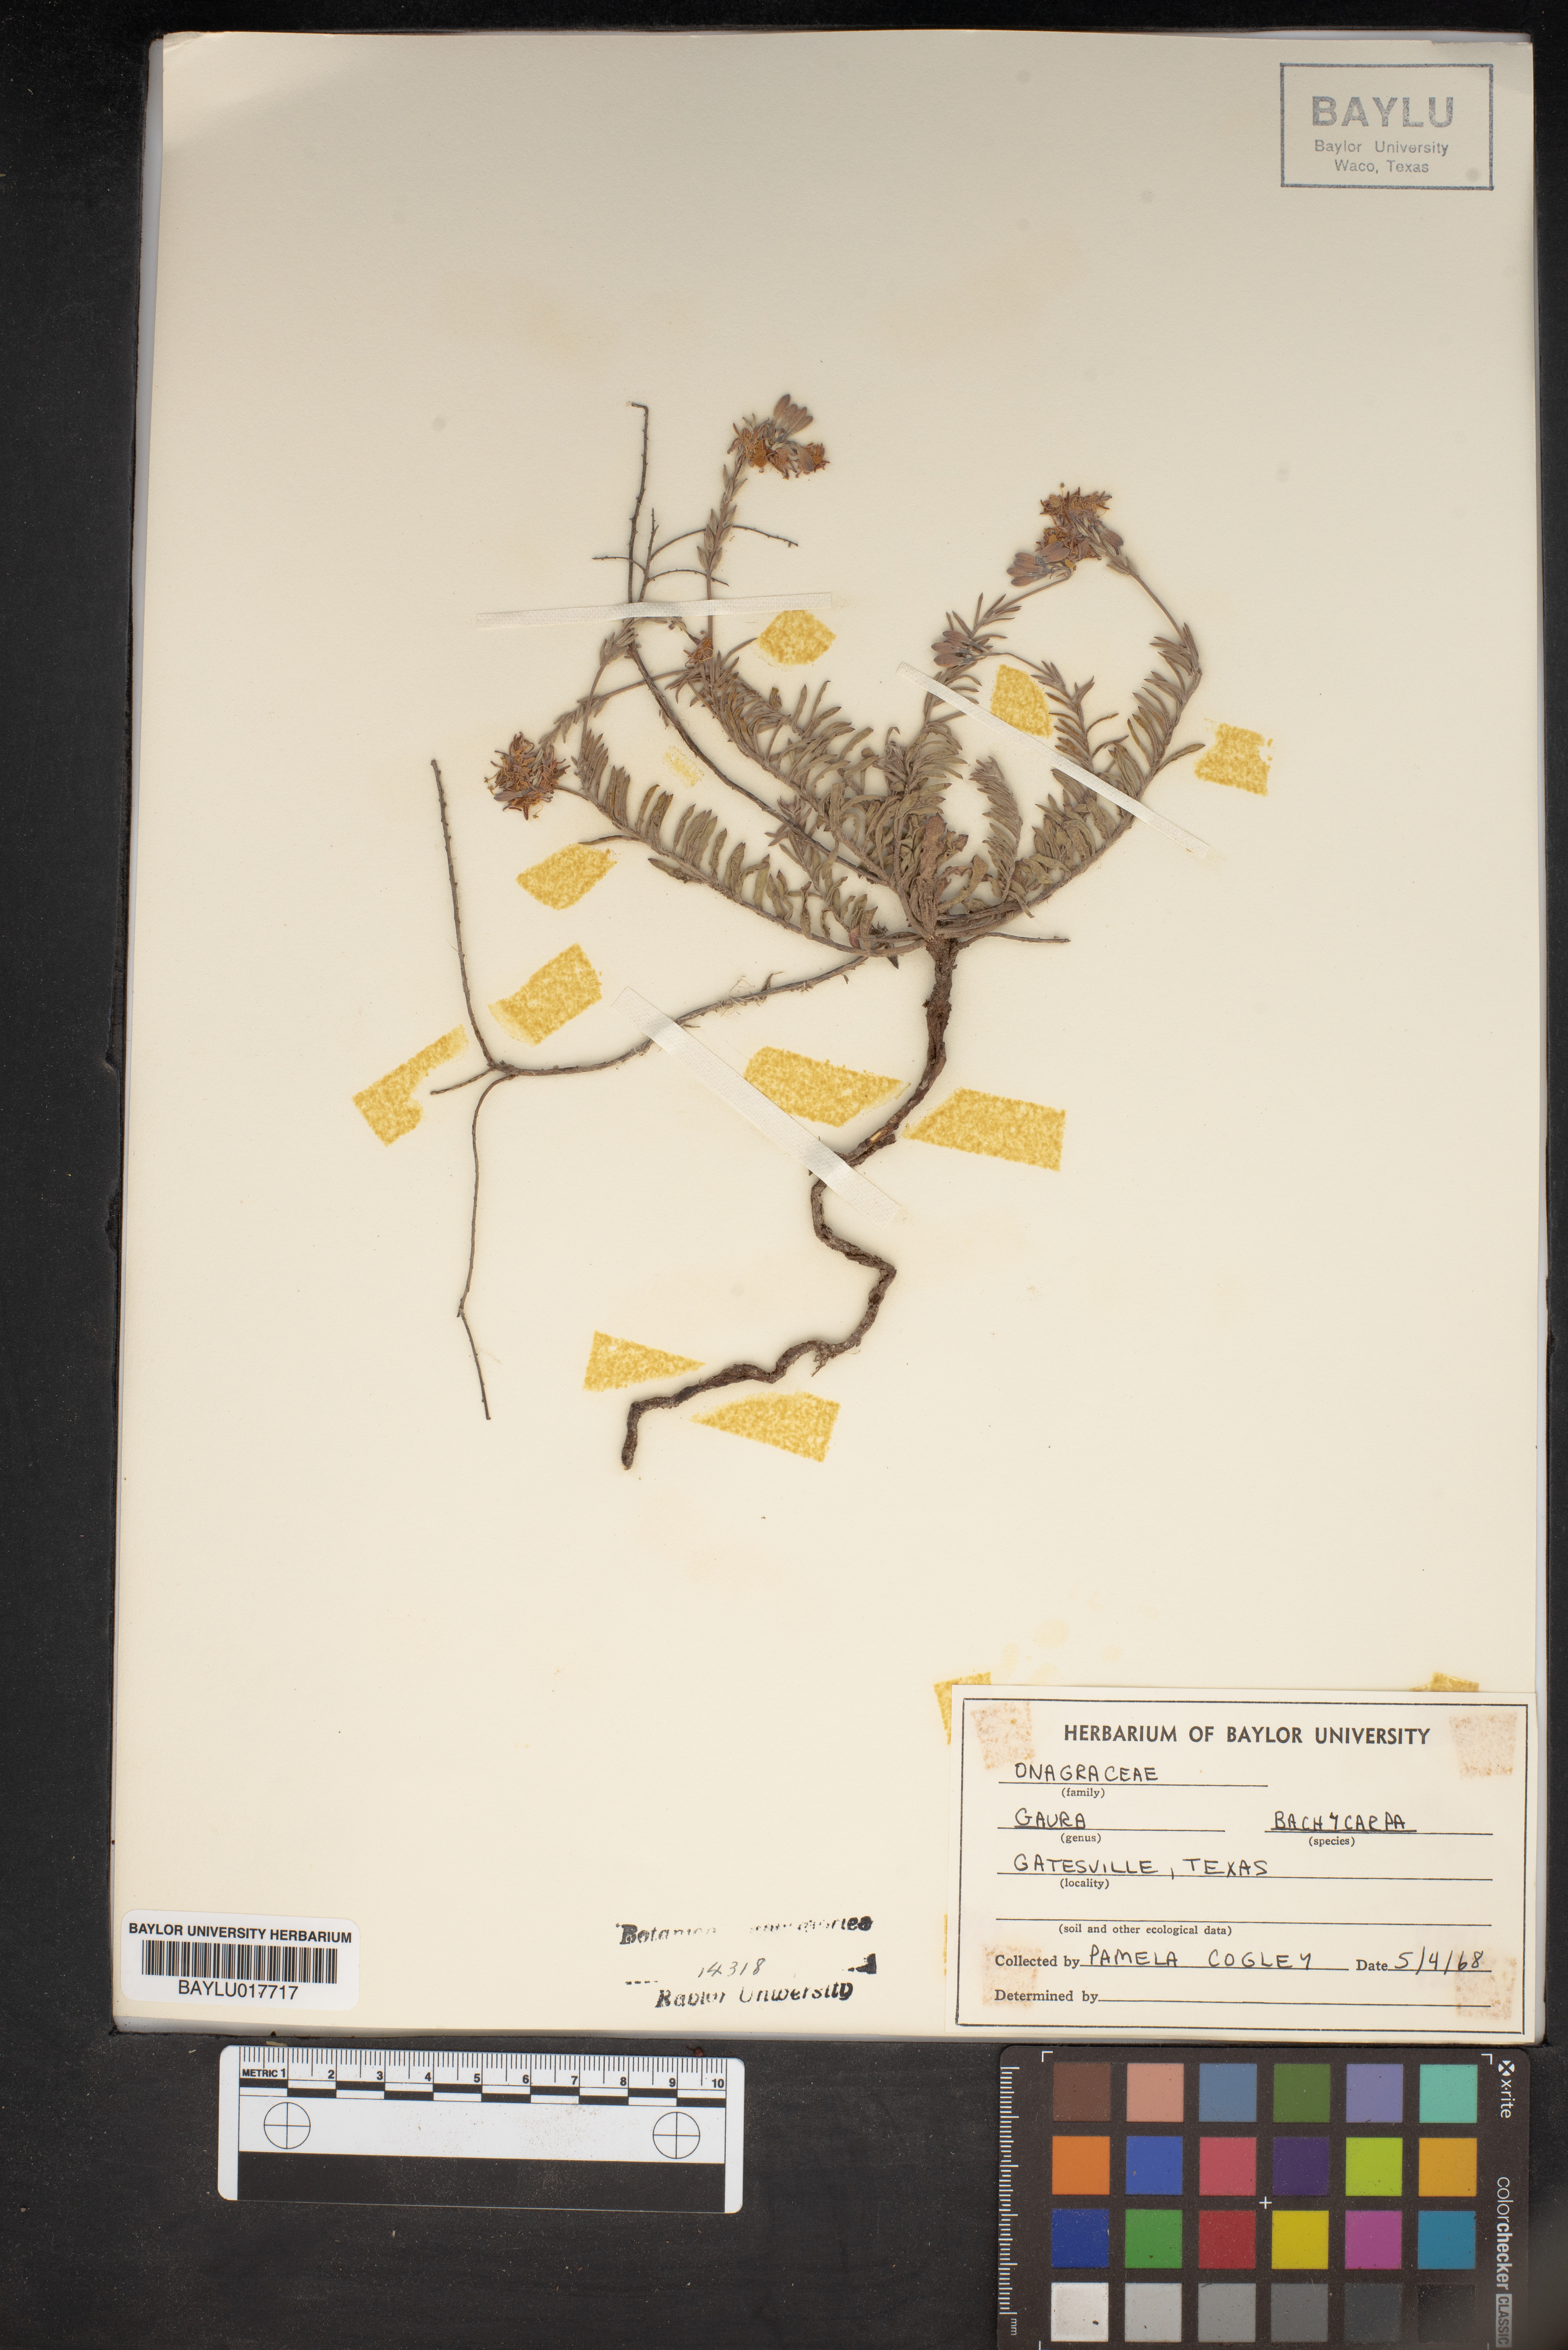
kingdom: Plantae
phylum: Tracheophyta
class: Magnoliopsida
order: Myrtales
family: Onagraceae
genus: Oenothera
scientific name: Oenothera patriciae
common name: Plains beeblossom
